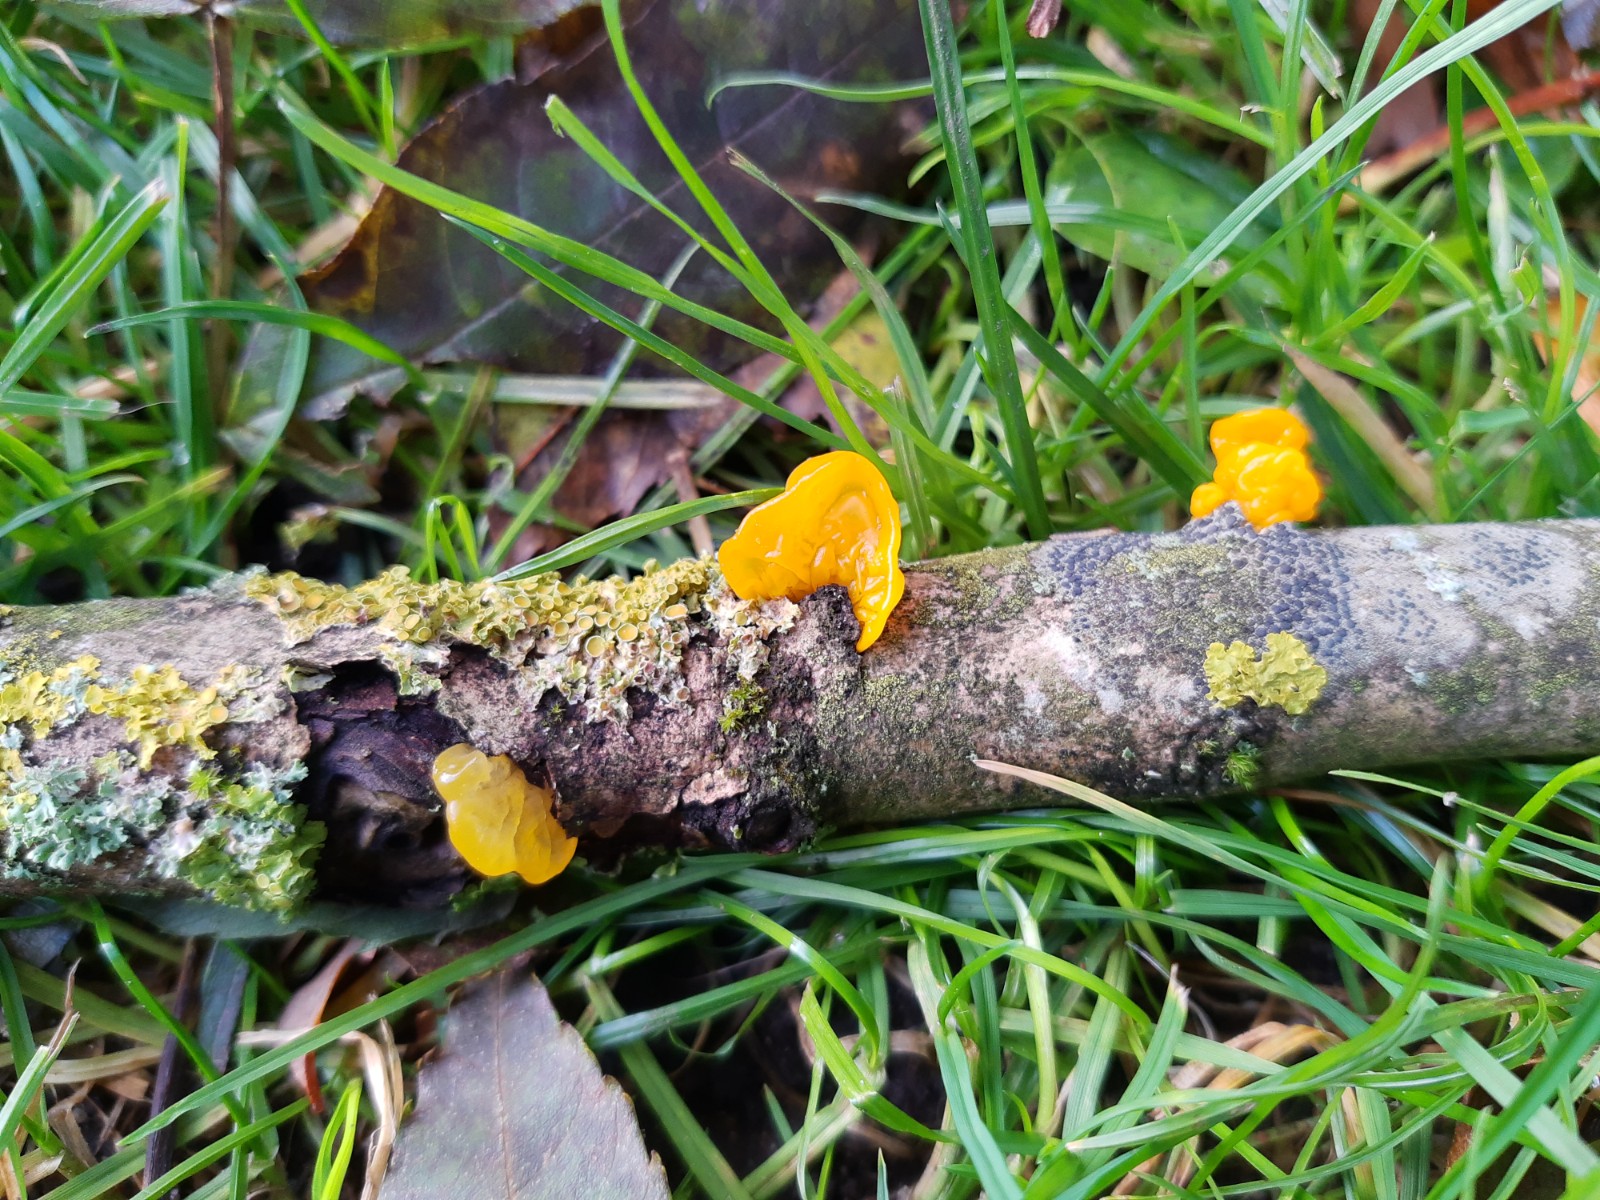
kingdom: Fungi
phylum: Basidiomycota
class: Tremellomycetes
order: Tremellales
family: Tremellaceae
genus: Tremella
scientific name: Tremella mesenterica
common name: gul bævresvamp
